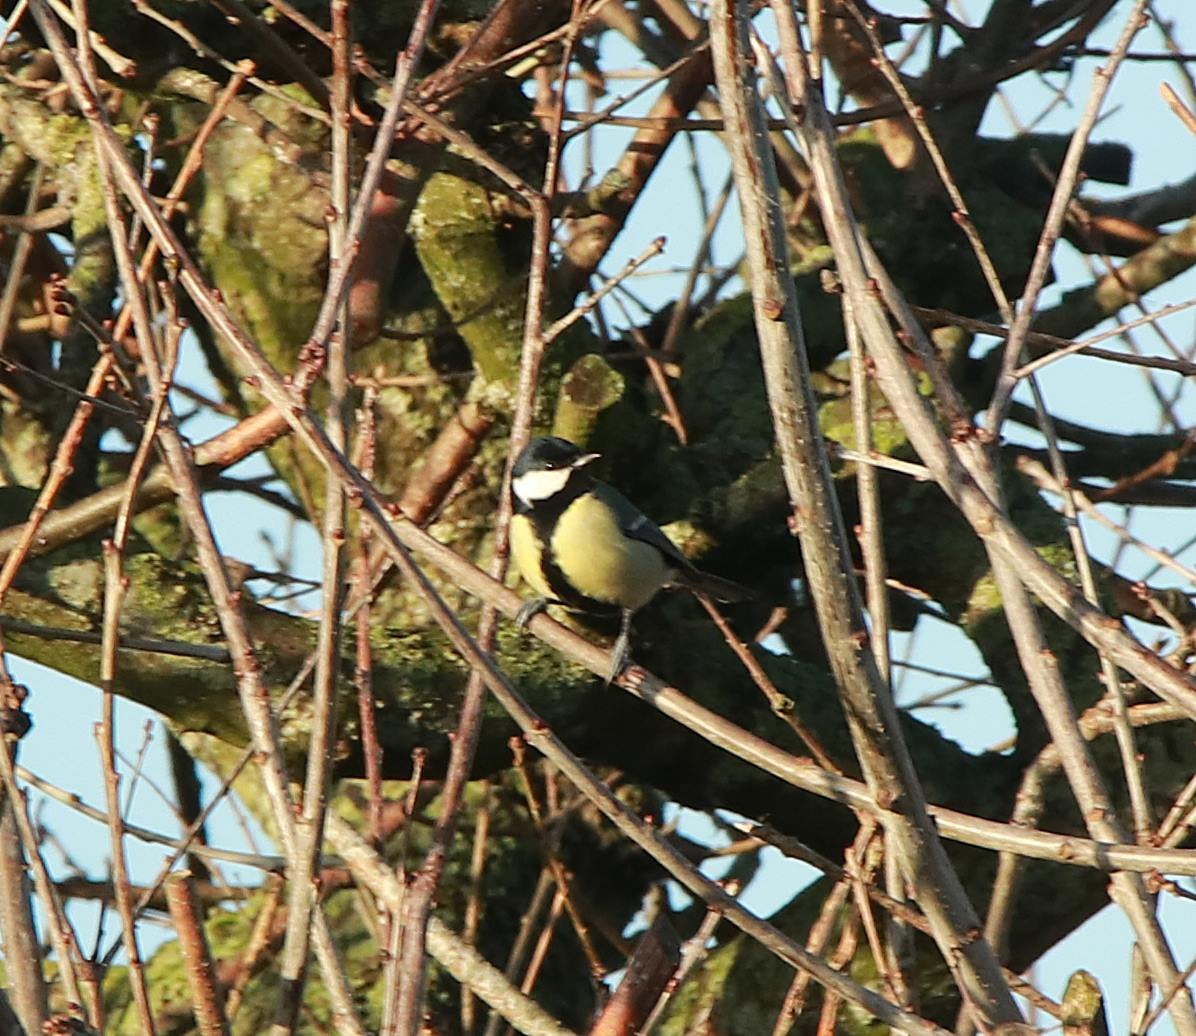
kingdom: Animalia
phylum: Chordata
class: Aves
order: Passeriformes
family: Paridae
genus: Parus
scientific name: Parus major
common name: Musvit
